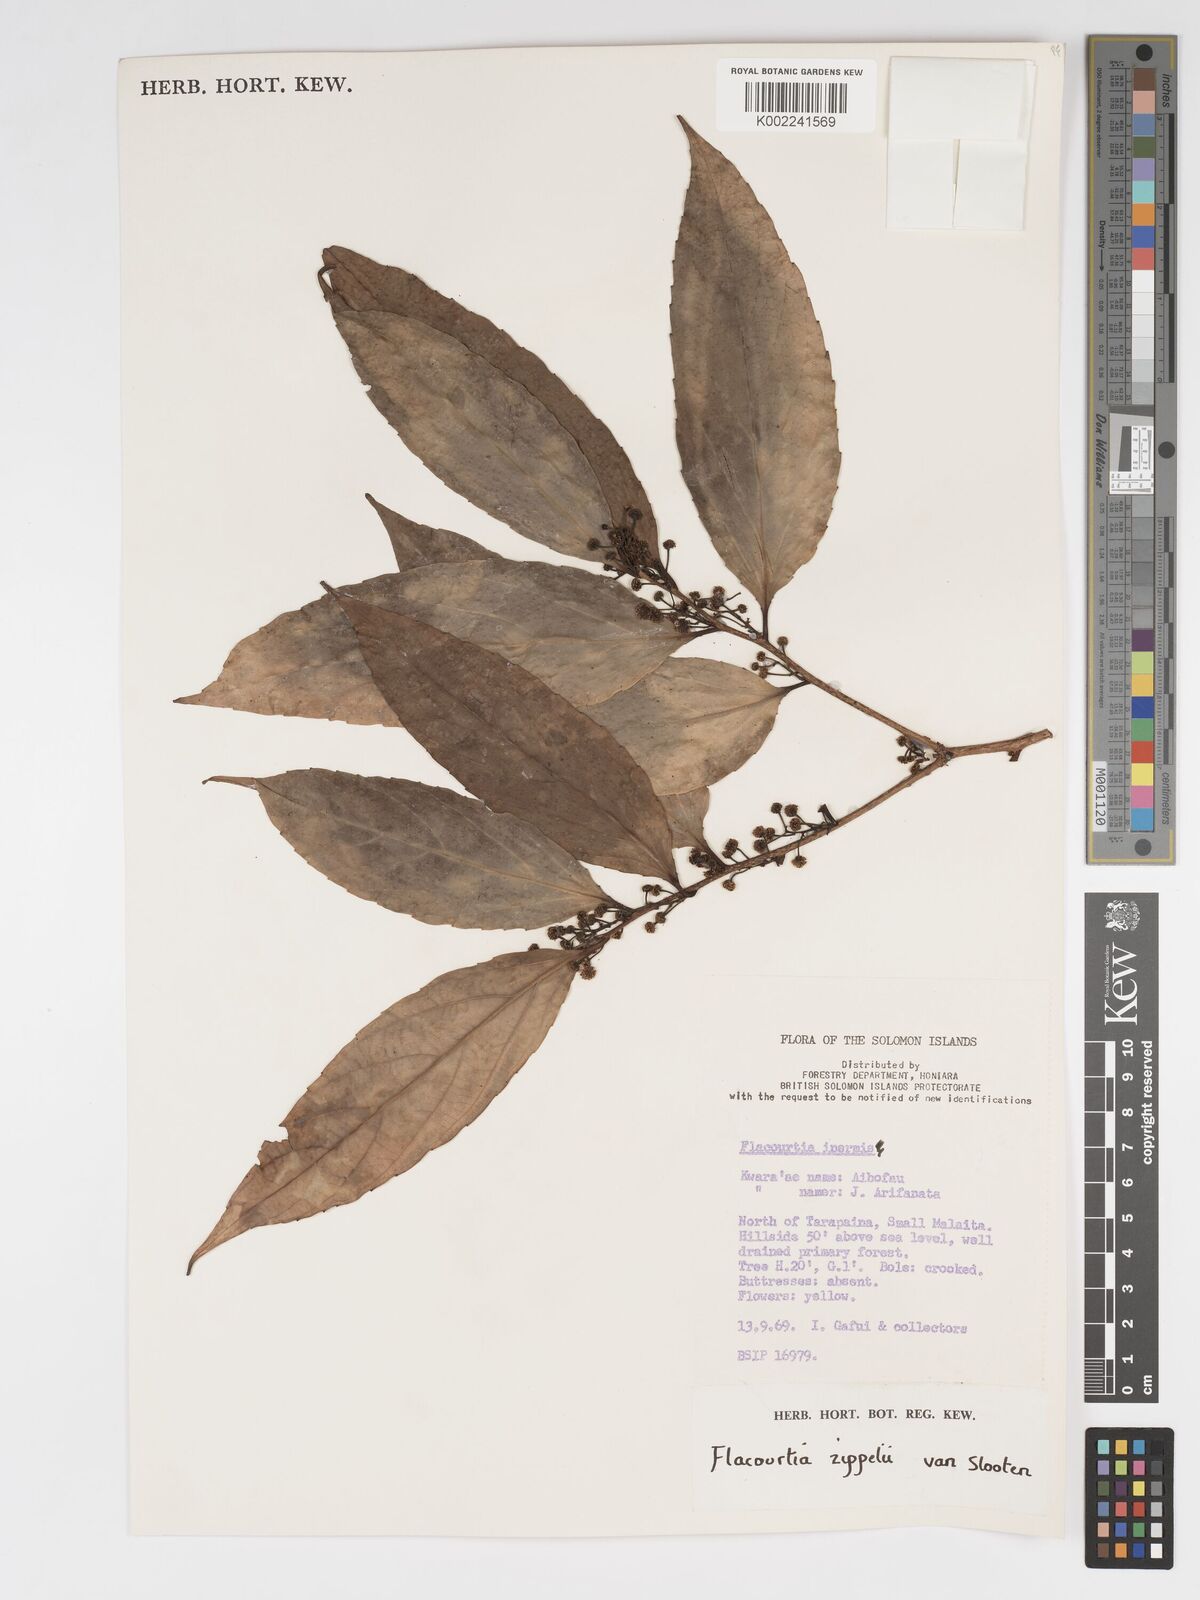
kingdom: Plantae
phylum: Tracheophyta
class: Magnoliopsida
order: Malpighiales
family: Salicaceae
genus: Flacourtia
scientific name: Flacourtia zippelii
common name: Zippeli plum
